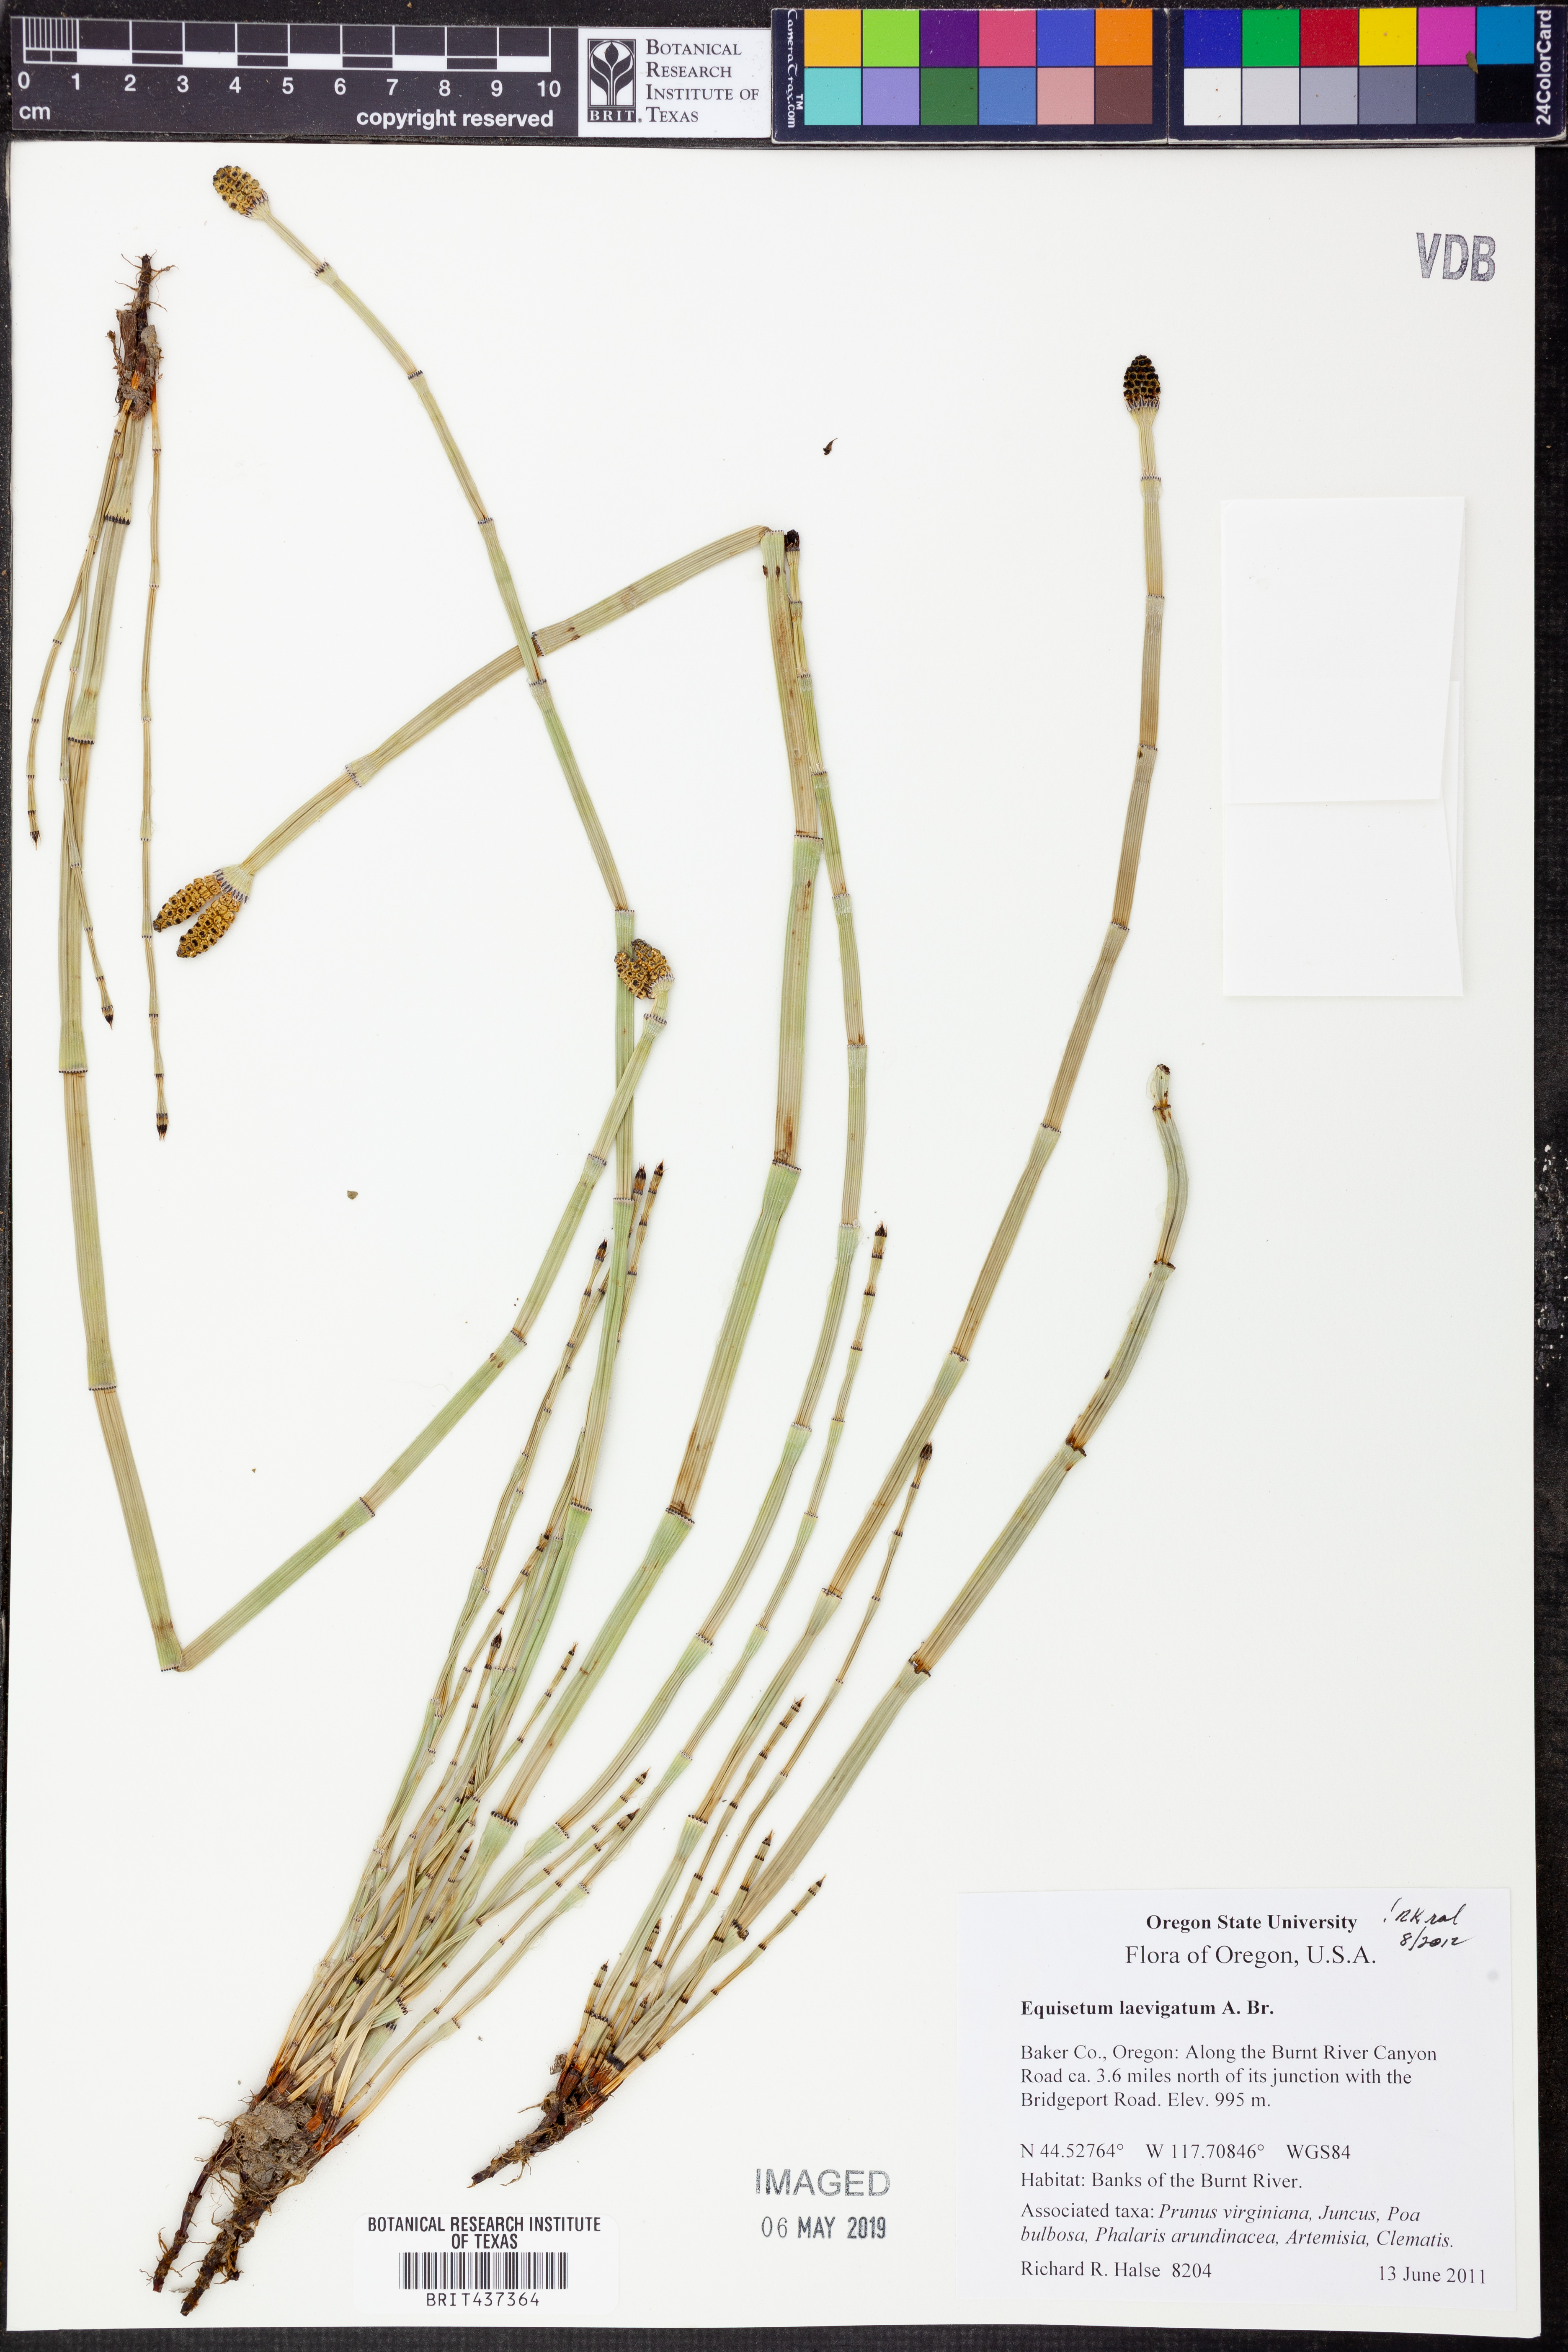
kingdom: Plantae
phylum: Tracheophyta
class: Polypodiopsida
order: Equisetales
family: Equisetaceae
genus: Equisetum
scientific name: Equisetum laevigatum
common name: Smooth scouring-rush
